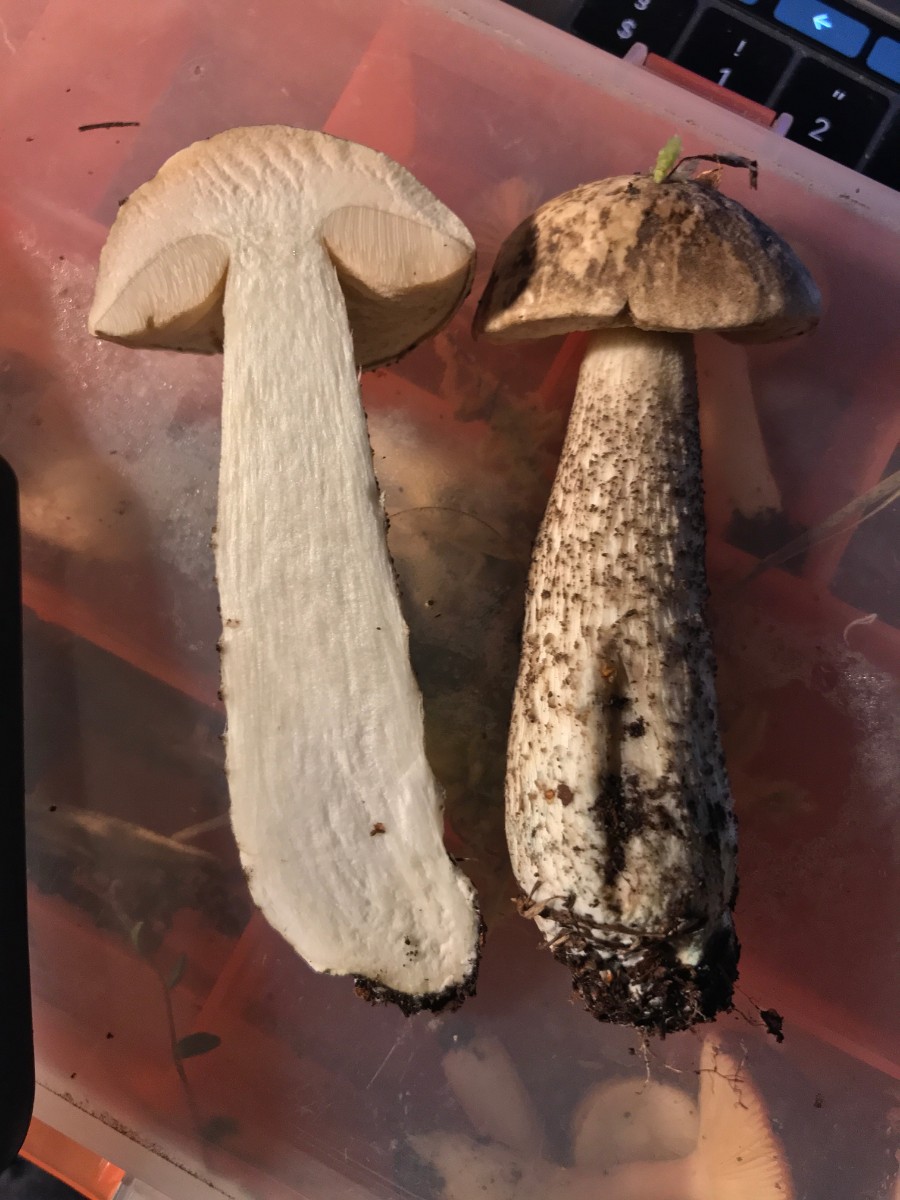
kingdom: Fungi
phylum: Basidiomycota
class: Agaricomycetes
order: Boletales
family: Boletaceae
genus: Leccinum
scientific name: Leccinum
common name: skælrørhat
